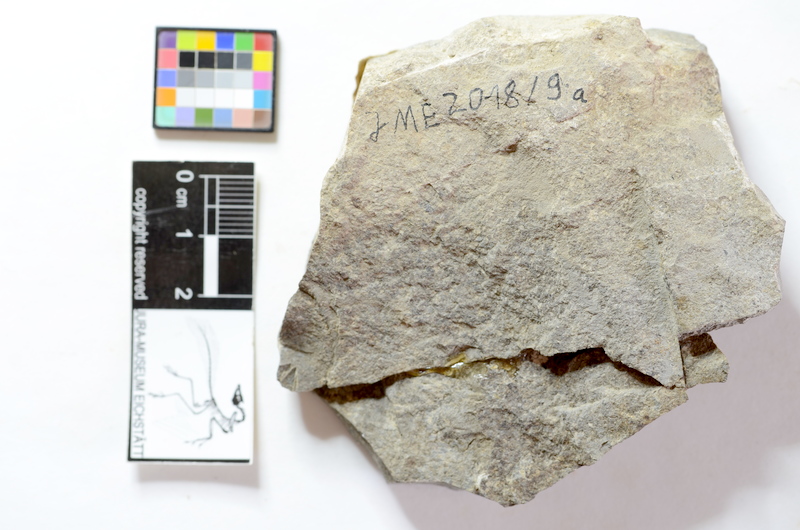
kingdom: Animalia
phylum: Chordata
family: Dapediidae
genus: Tetragonolepis
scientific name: Tetragonolepis semicinctus
